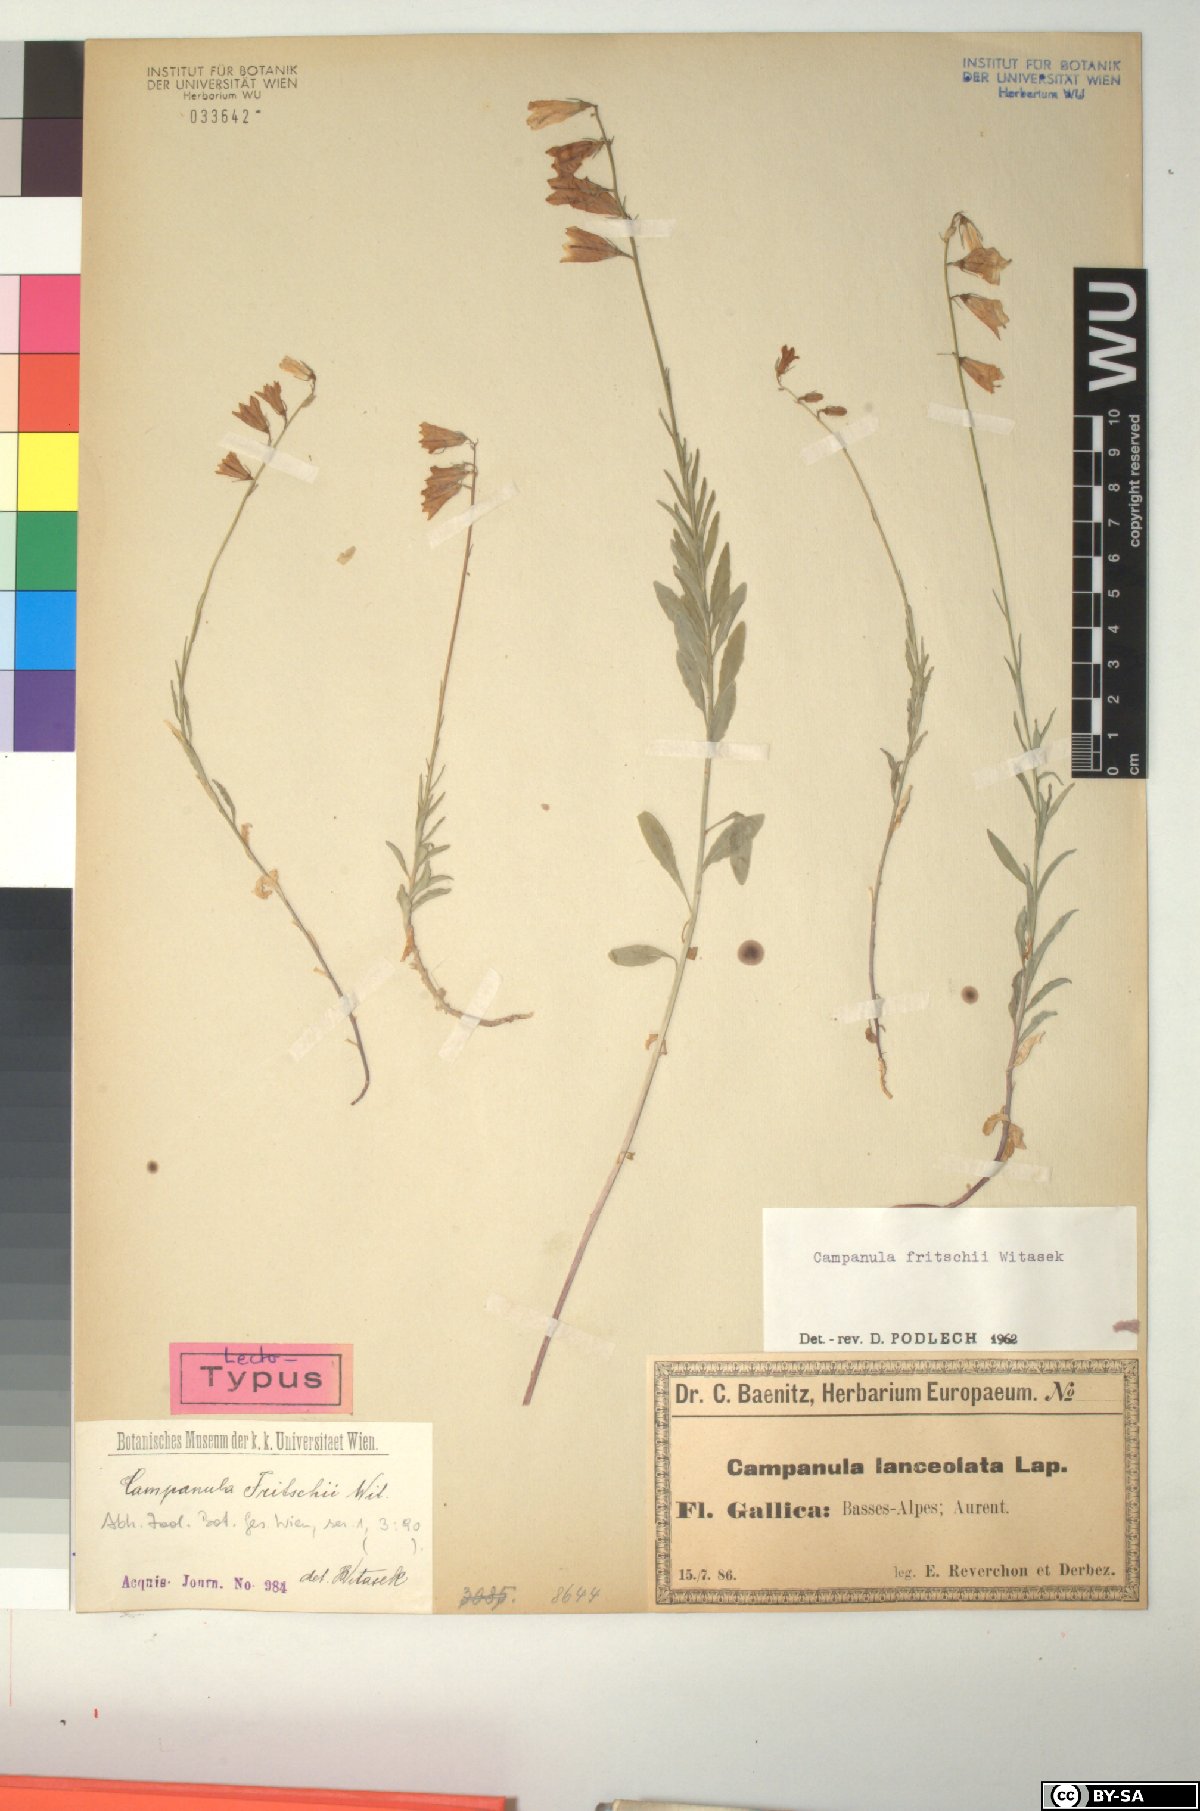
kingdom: Plantae
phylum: Tracheophyta
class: Magnoliopsida
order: Asterales
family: Campanulaceae
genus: Campanula
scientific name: Campanula fritschii
